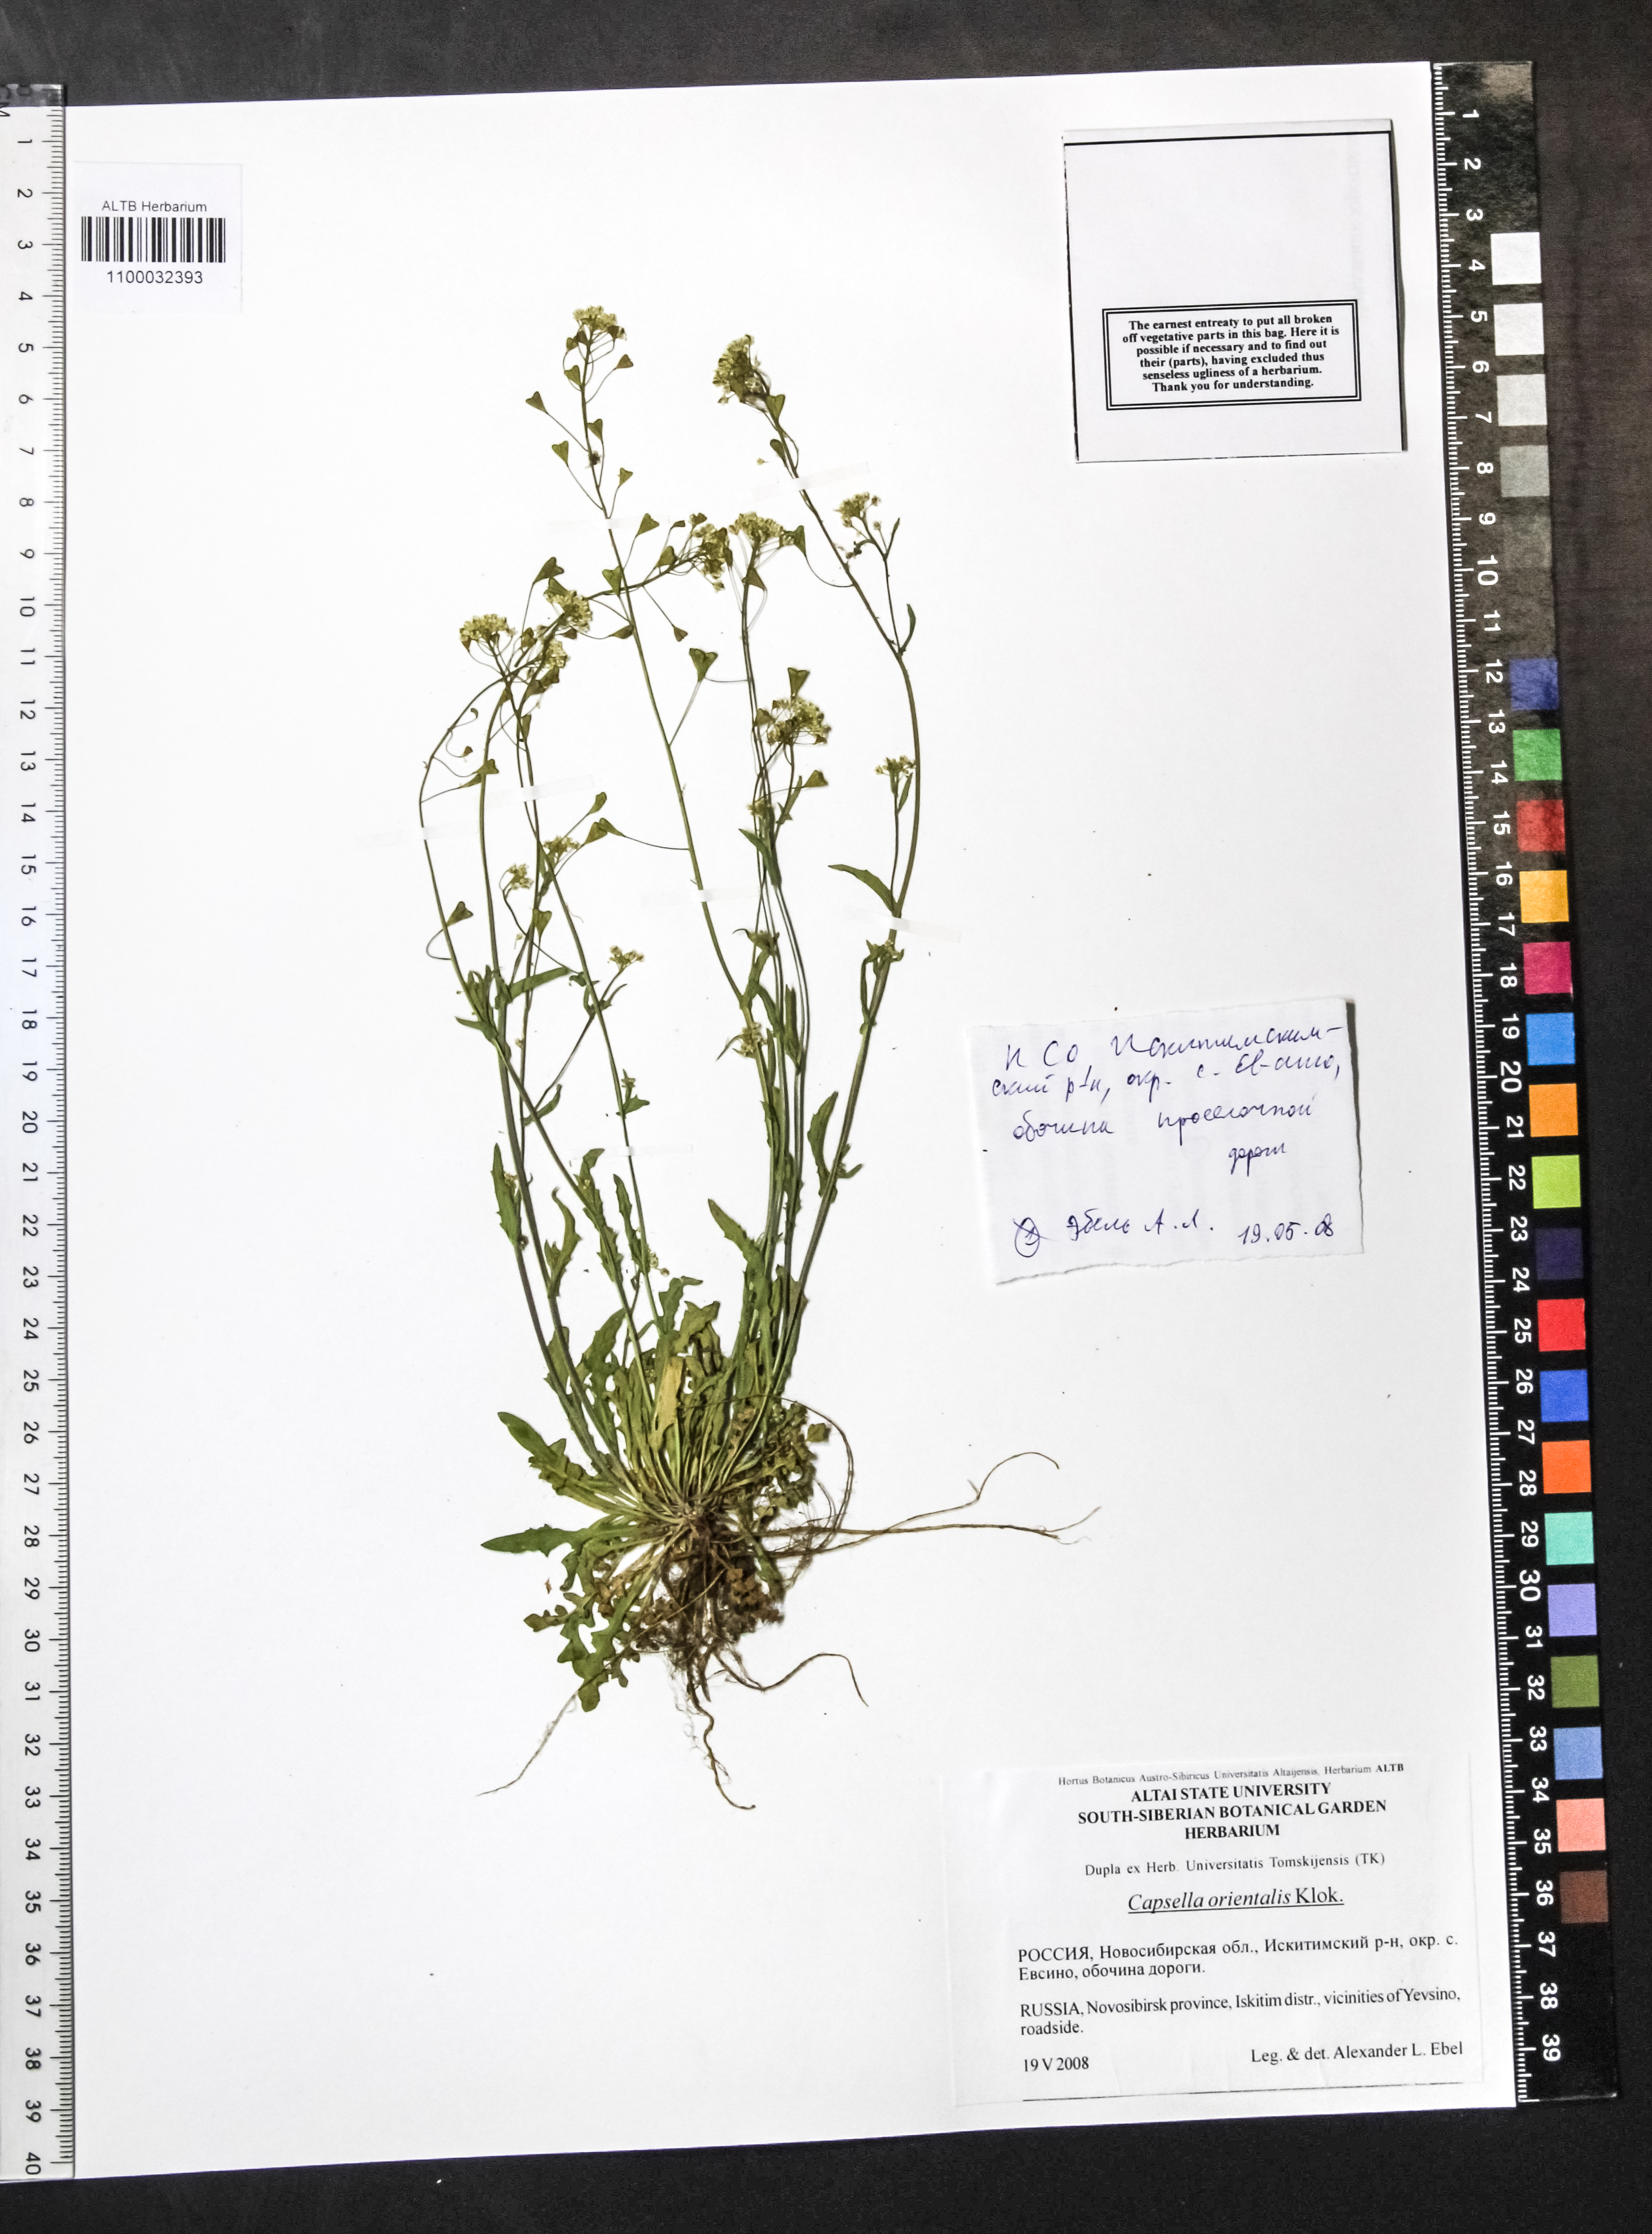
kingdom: Plantae
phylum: Tracheophyta
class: Magnoliopsida
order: Brassicales
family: Brassicaceae
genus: Capsella
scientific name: Capsella orientalis
